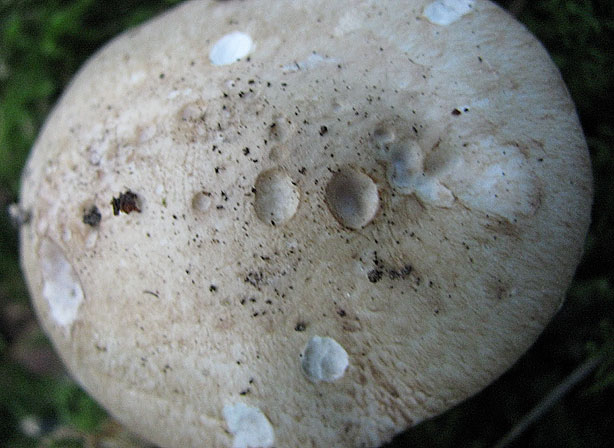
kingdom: Fungi
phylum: Basidiomycota
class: Agaricomycetes
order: Agaricales
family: Psathyrellaceae
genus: Candolleomyces
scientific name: Candolleomyces candolleanus
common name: Candolles mørkhat
